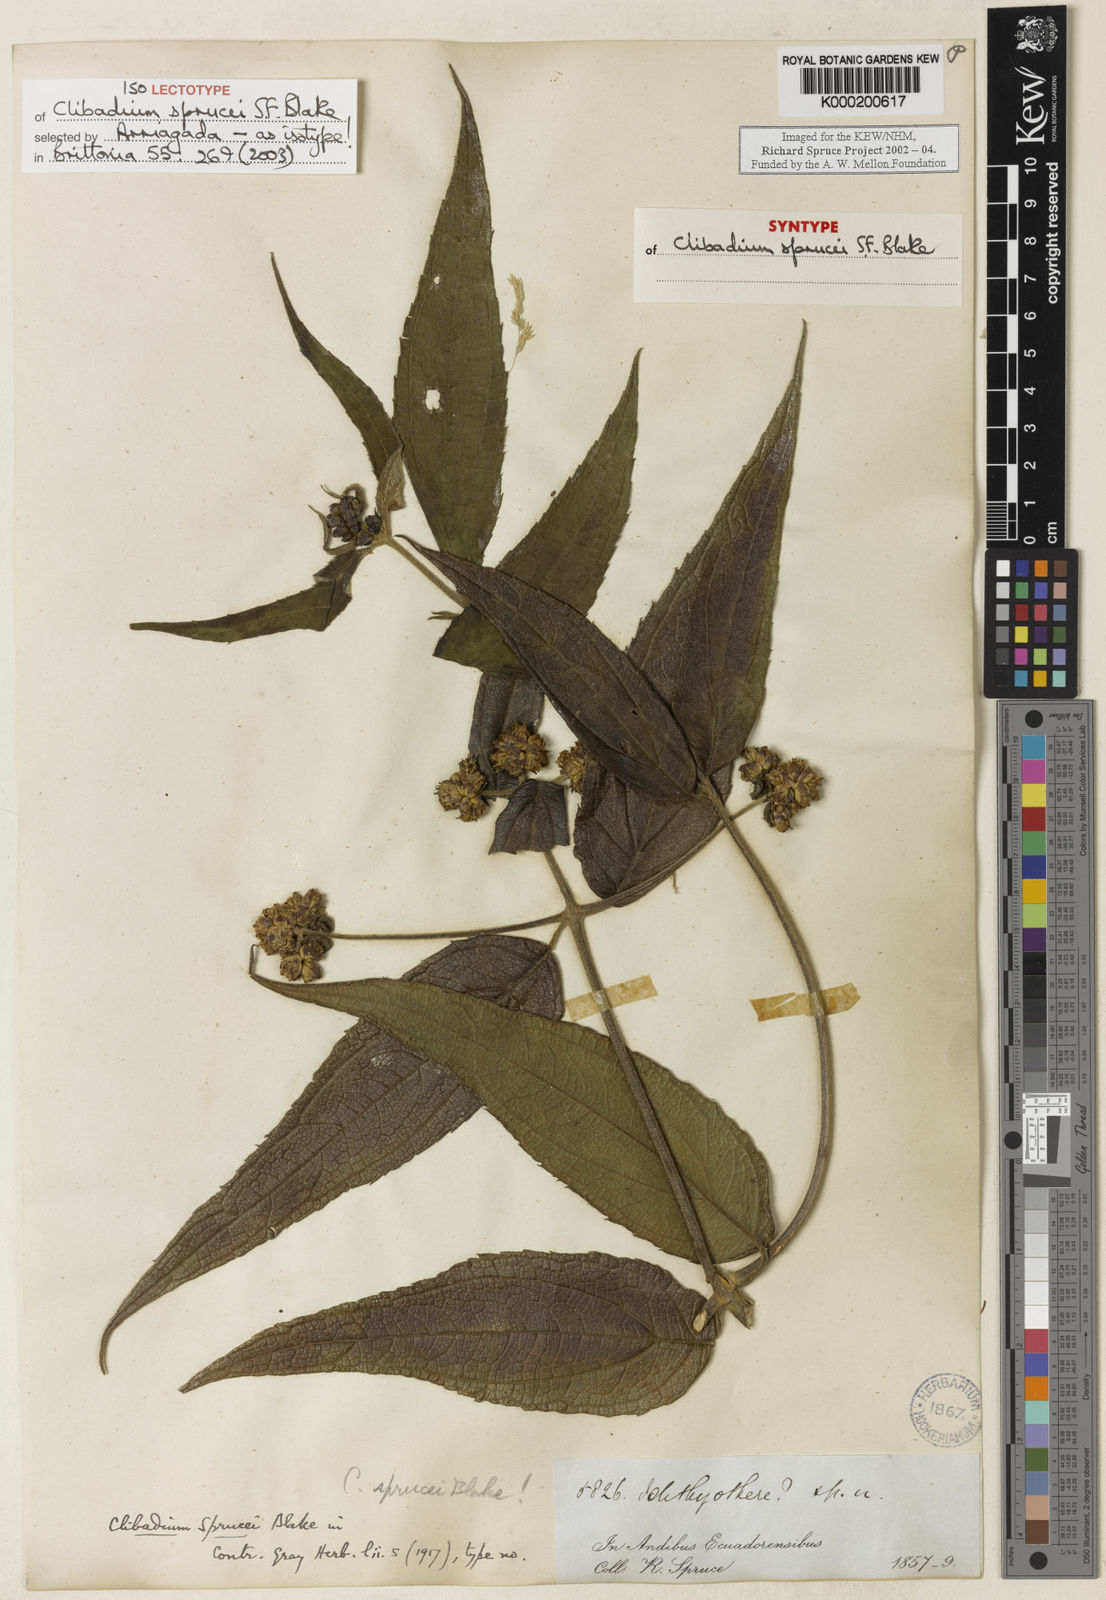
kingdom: Plantae
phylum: Tracheophyta
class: Magnoliopsida
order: Asterales
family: Asteraceae
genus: Clibadium
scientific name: Clibadium sprucei
